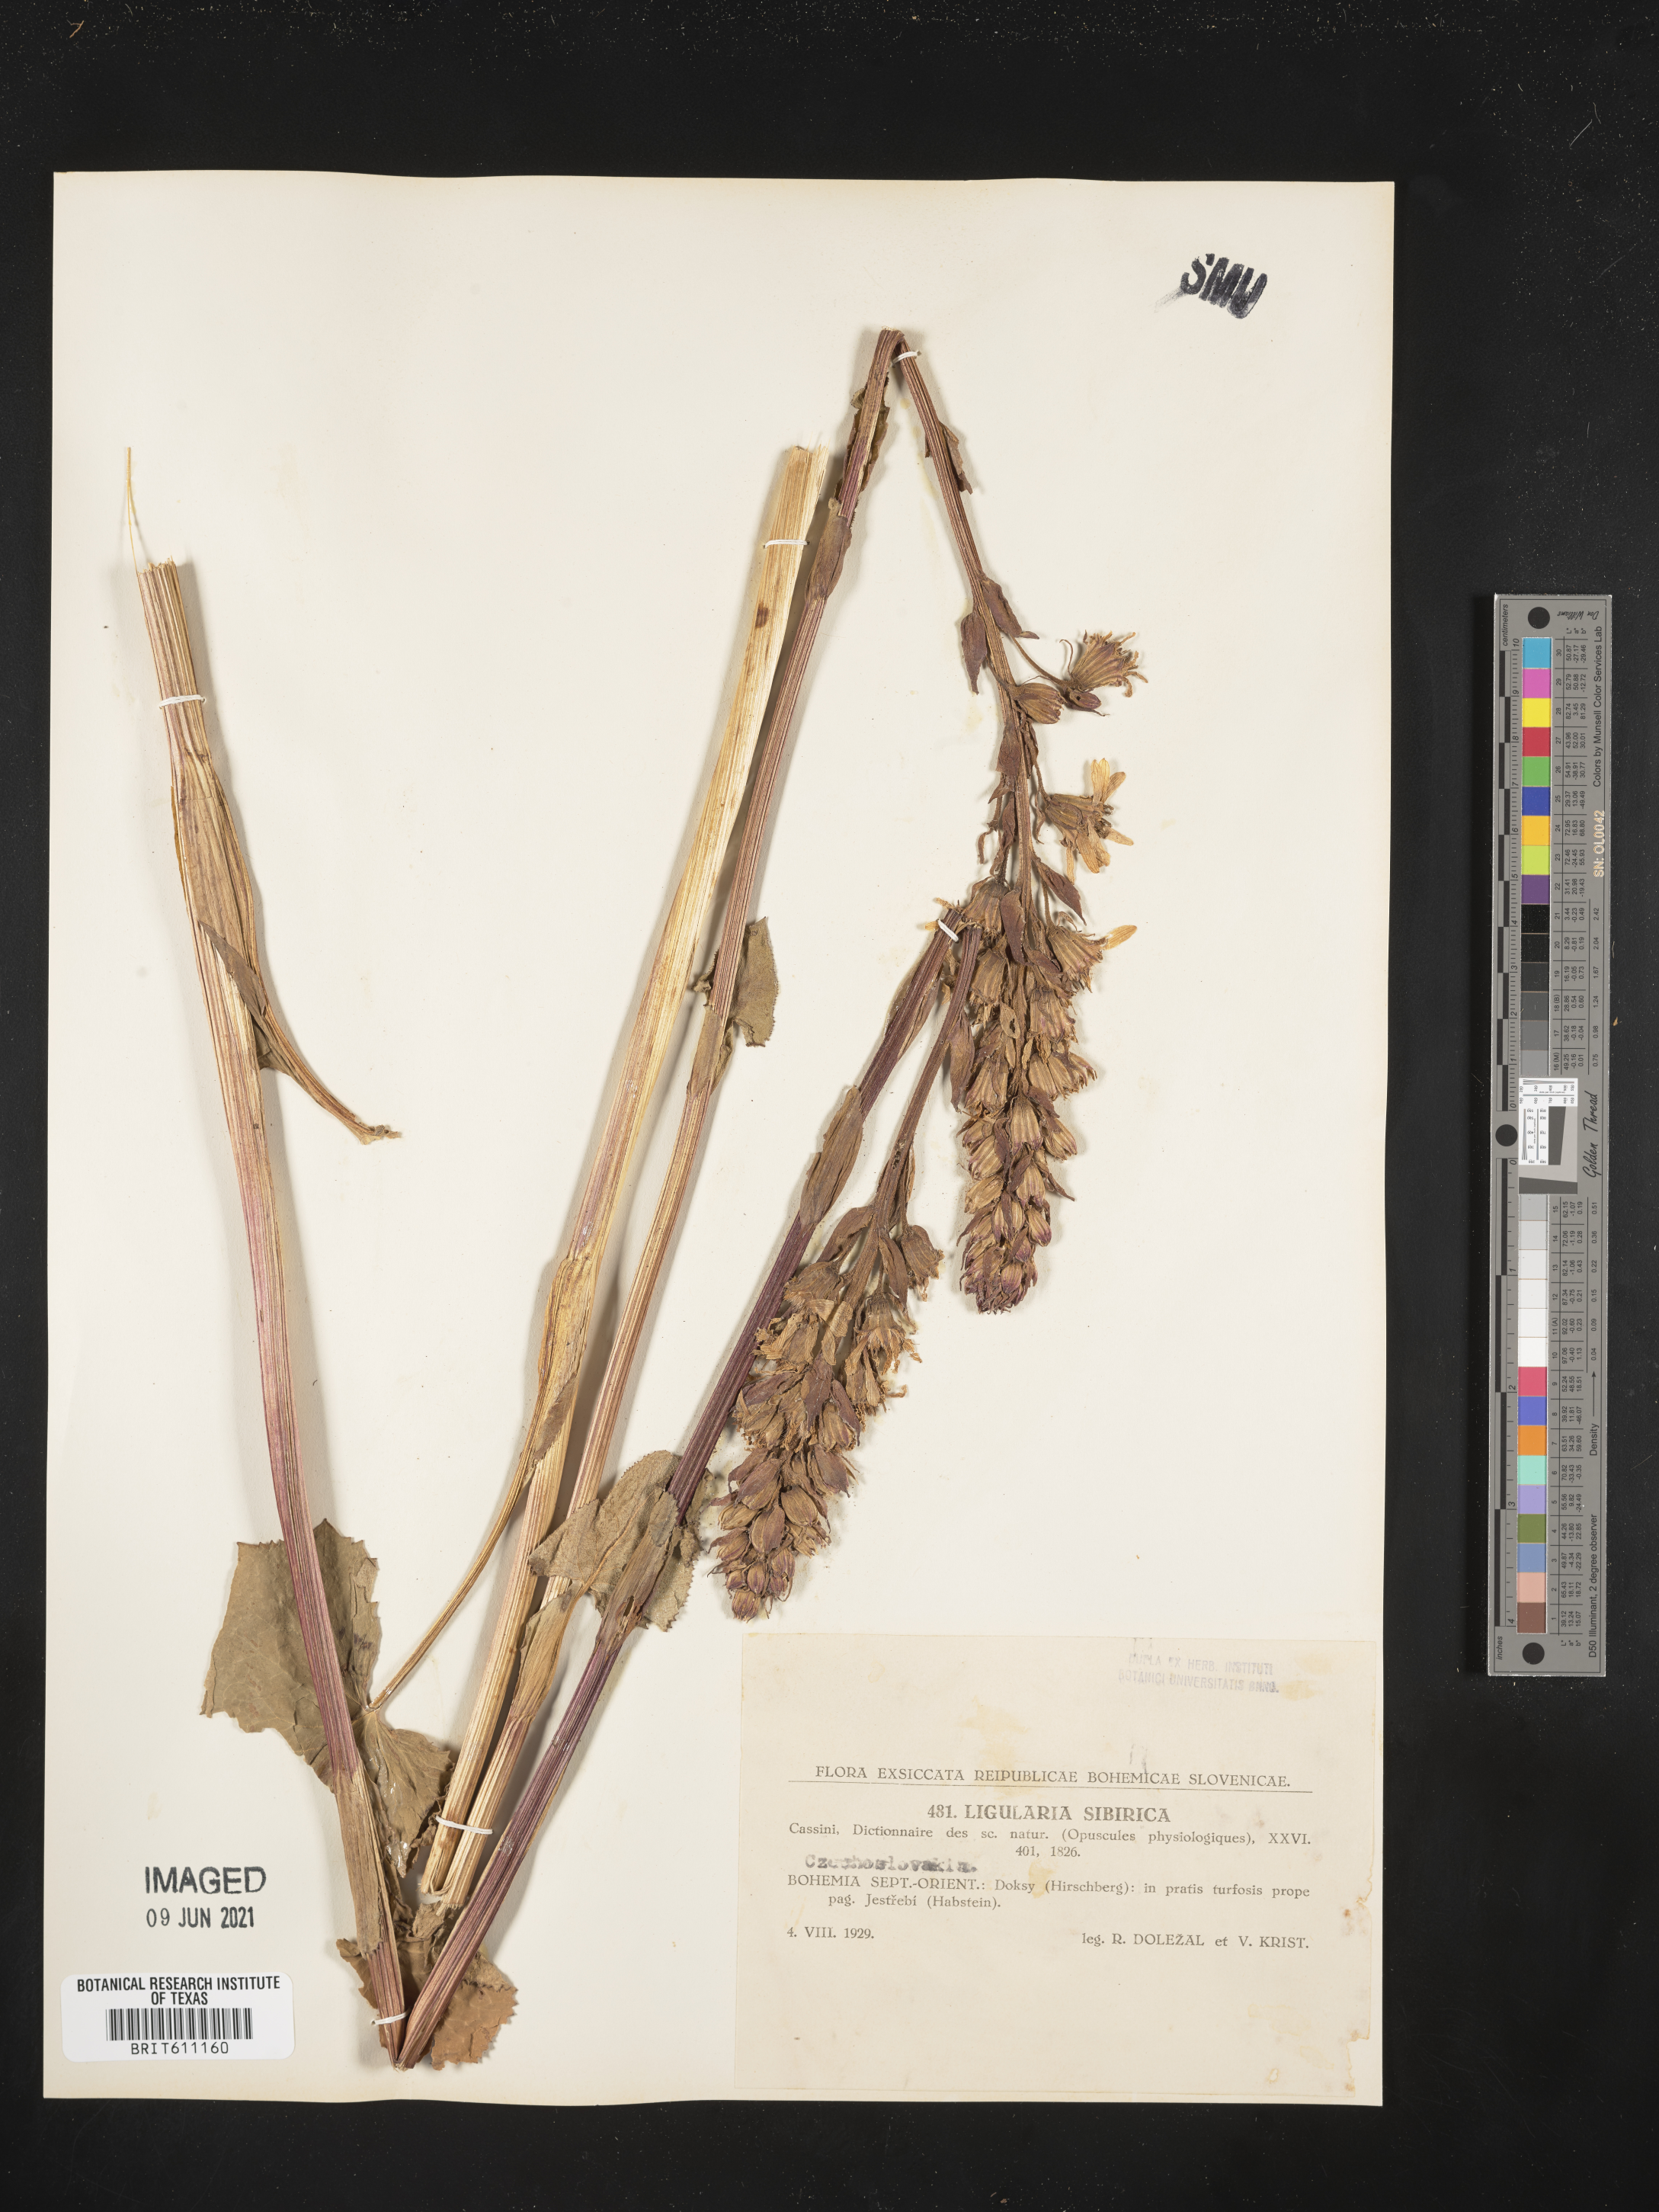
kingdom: Plantae
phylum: Tracheophyta
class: Magnoliopsida
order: Asterales
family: Asteraceae
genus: Ligularia
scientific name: Ligularia sibirica
